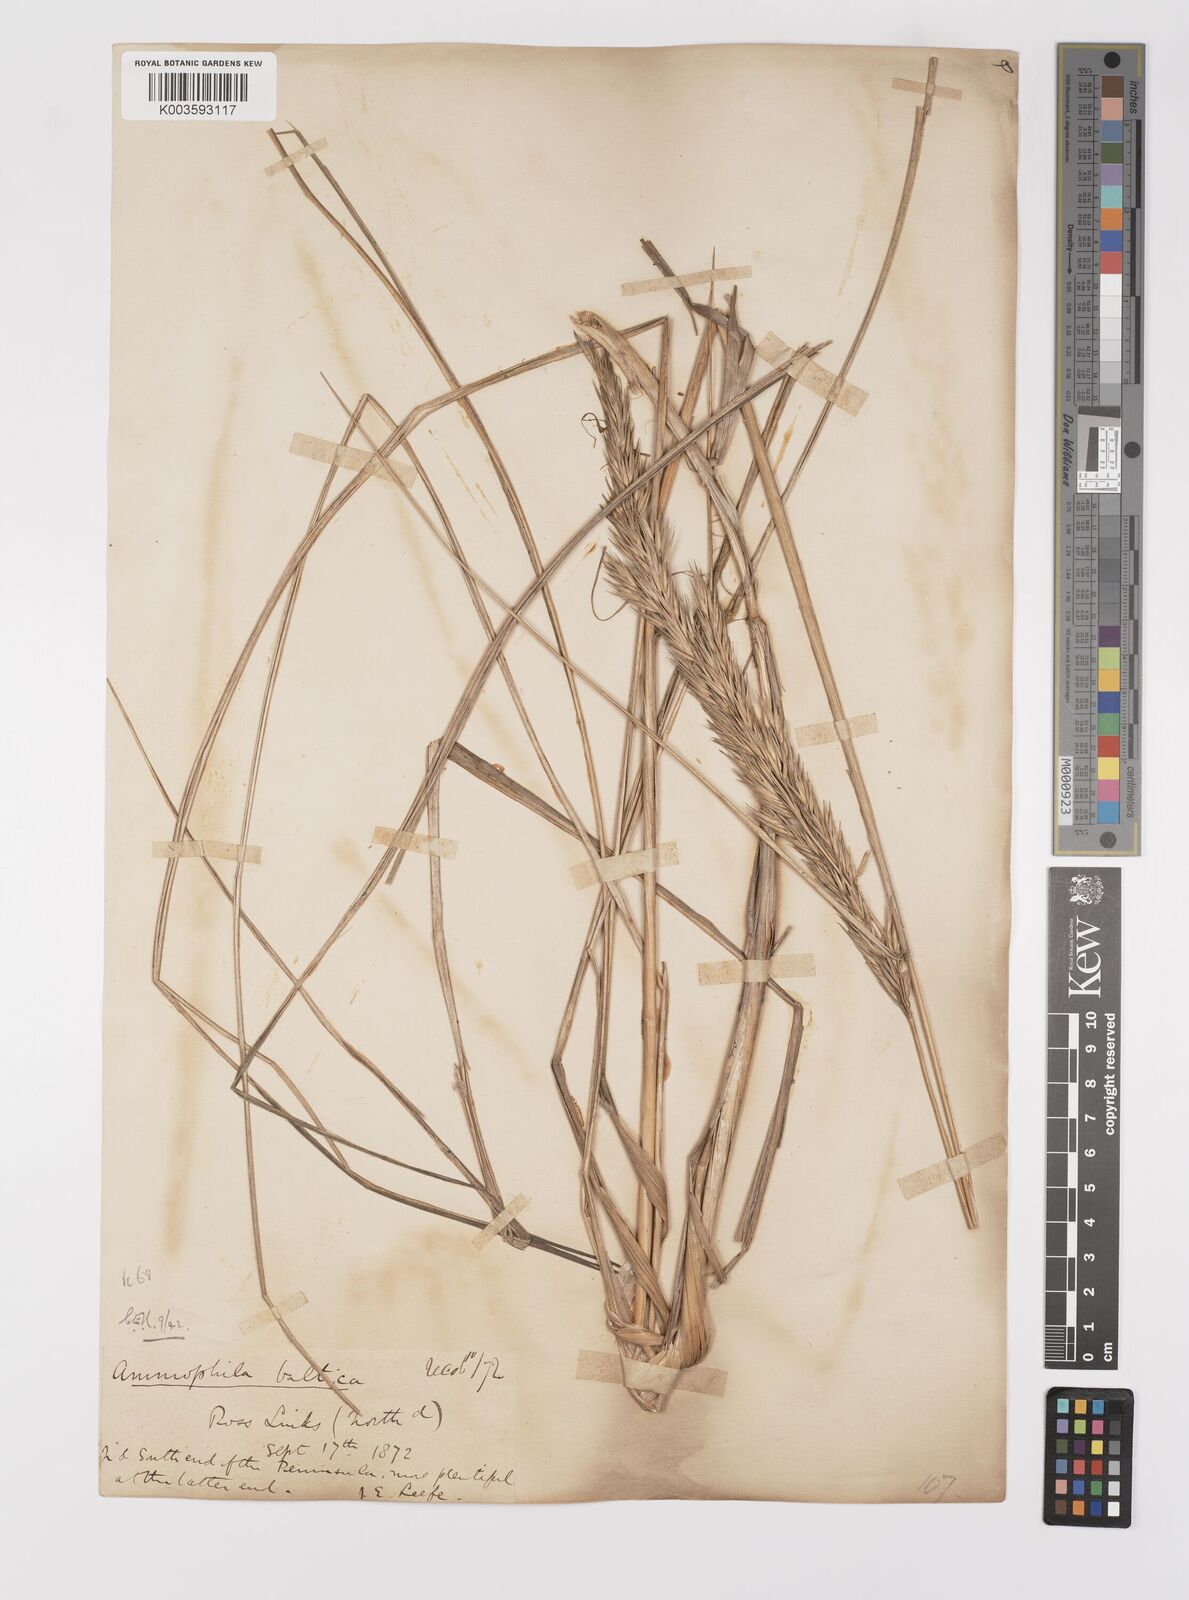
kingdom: Plantae
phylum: Tracheophyta
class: Liliopsida
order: Poales
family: Poaceae
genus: Calamagrostis
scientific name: Calamagrostis baltica
